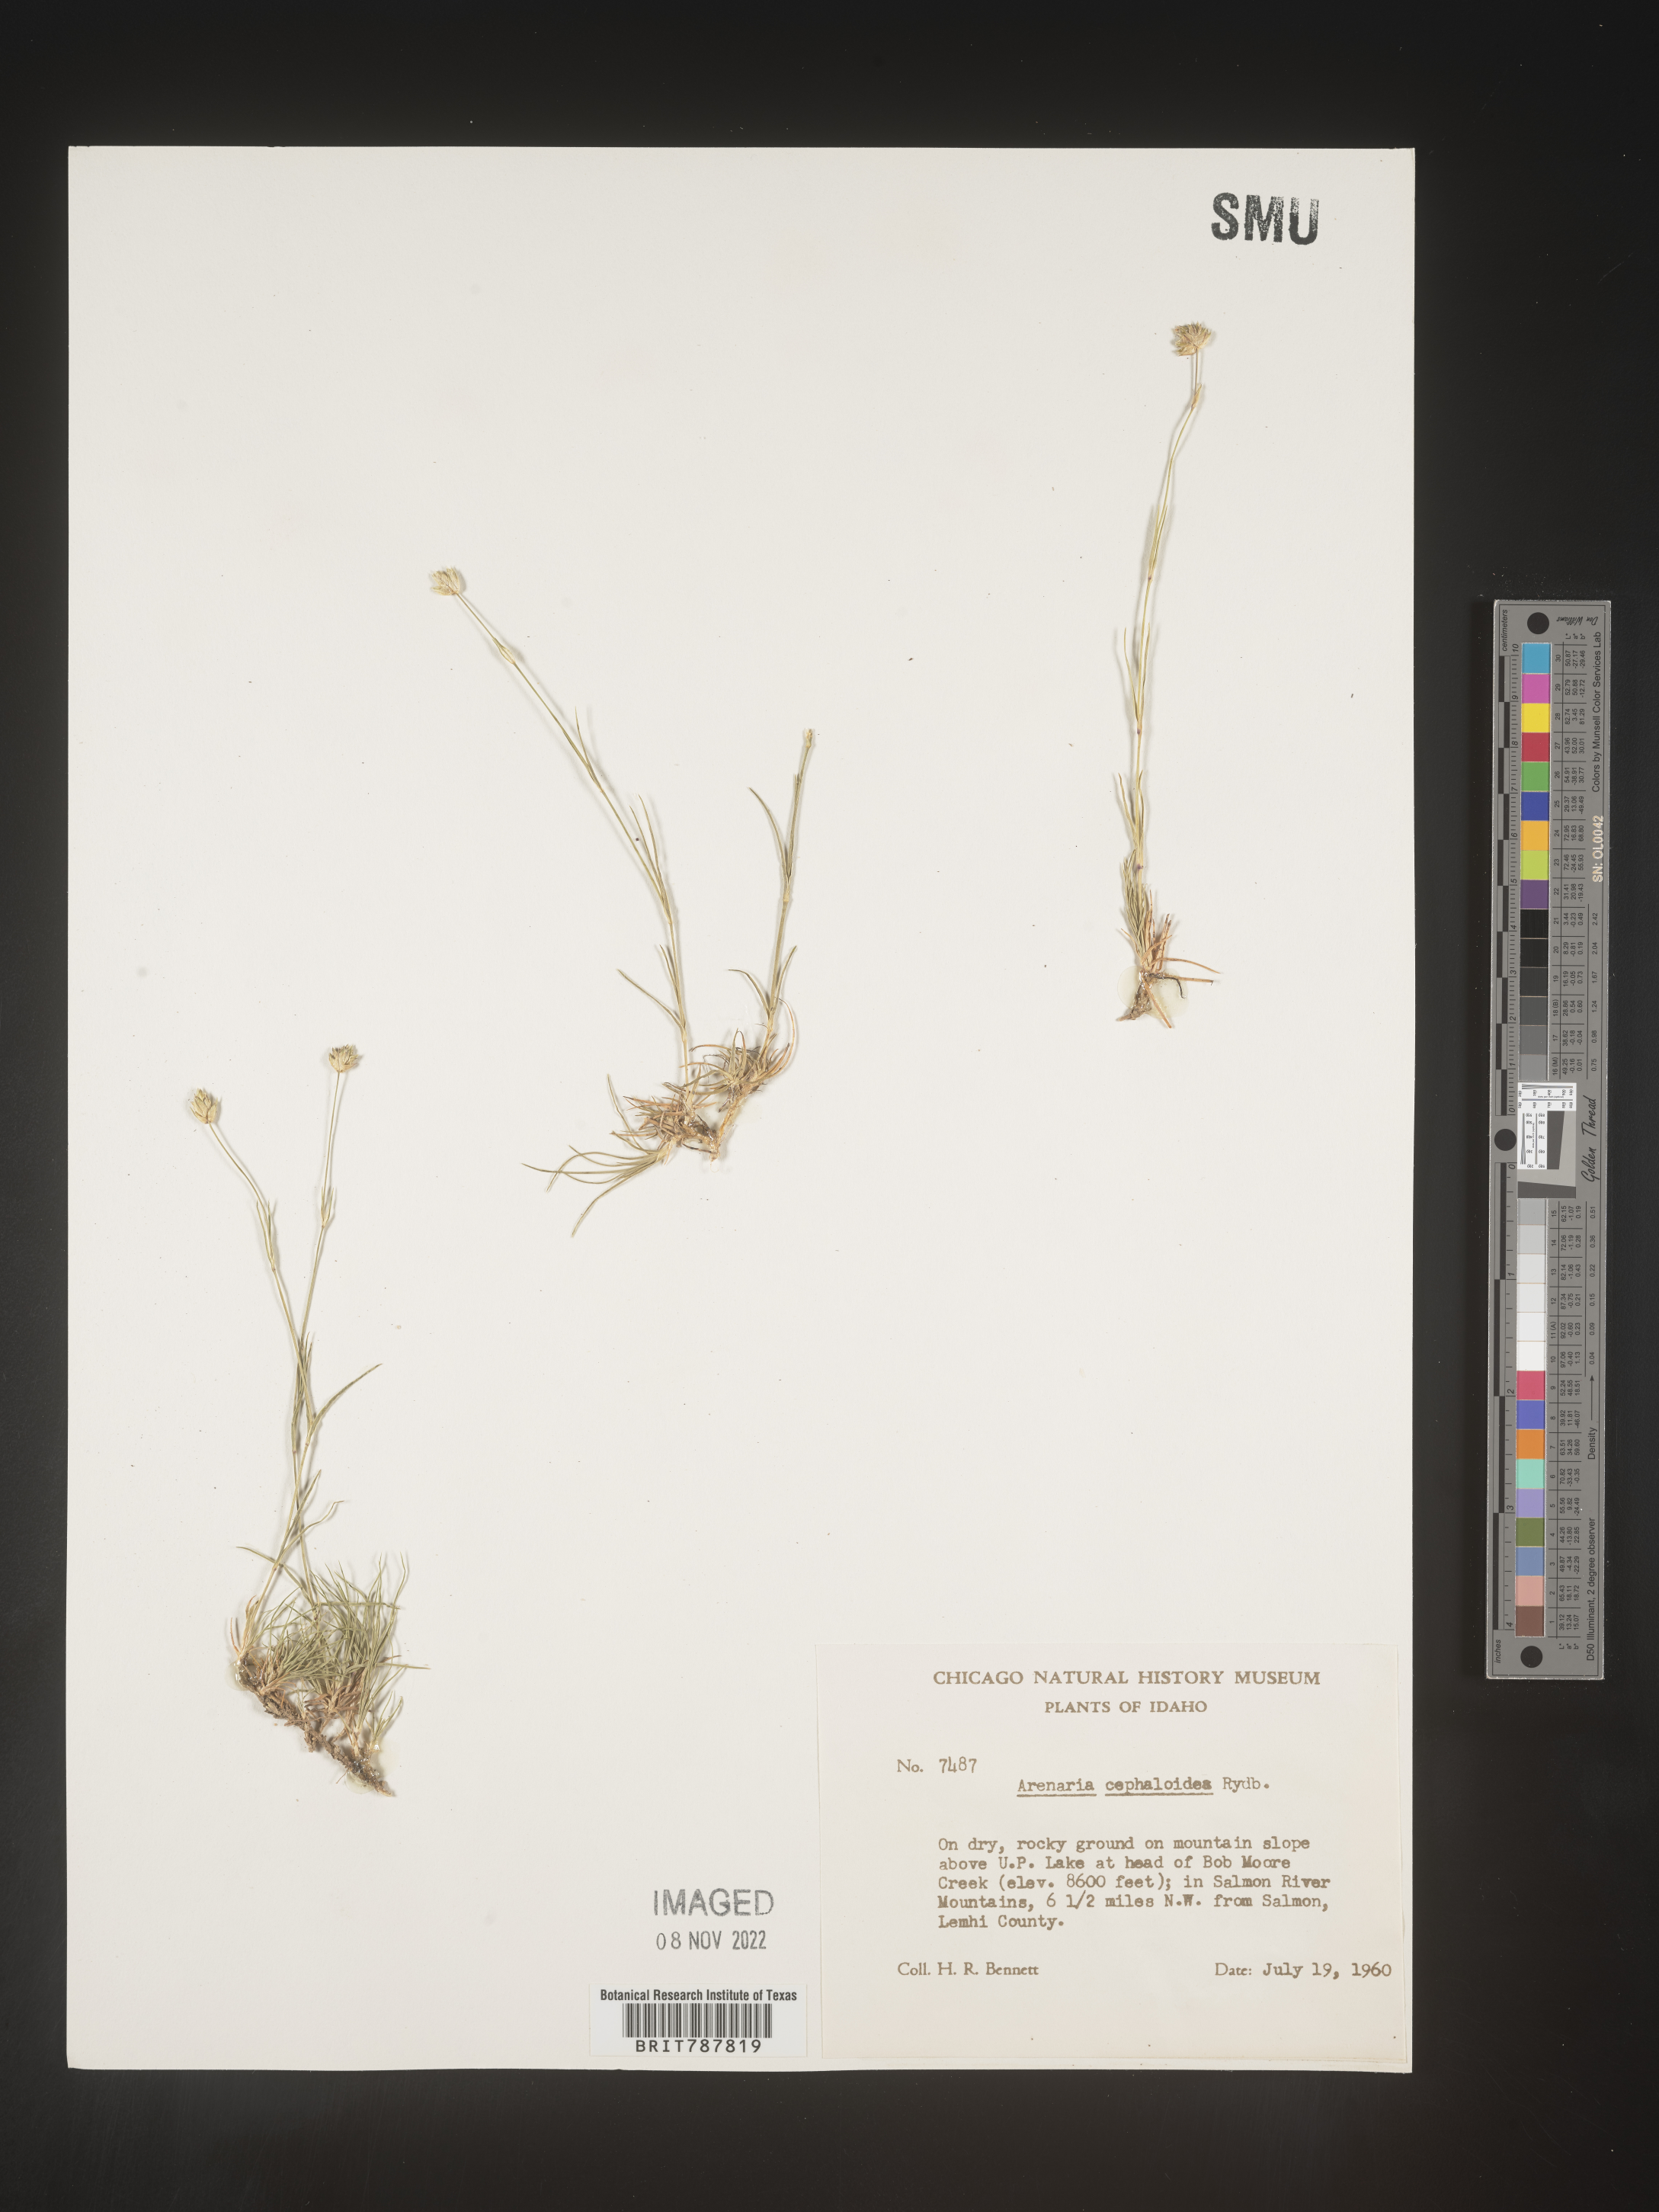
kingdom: Plantae
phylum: Tracheophyta
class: Magnoliopsida
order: Caryophyllales
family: Caryophyllaceae
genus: Arenaria
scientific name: Arenaria
